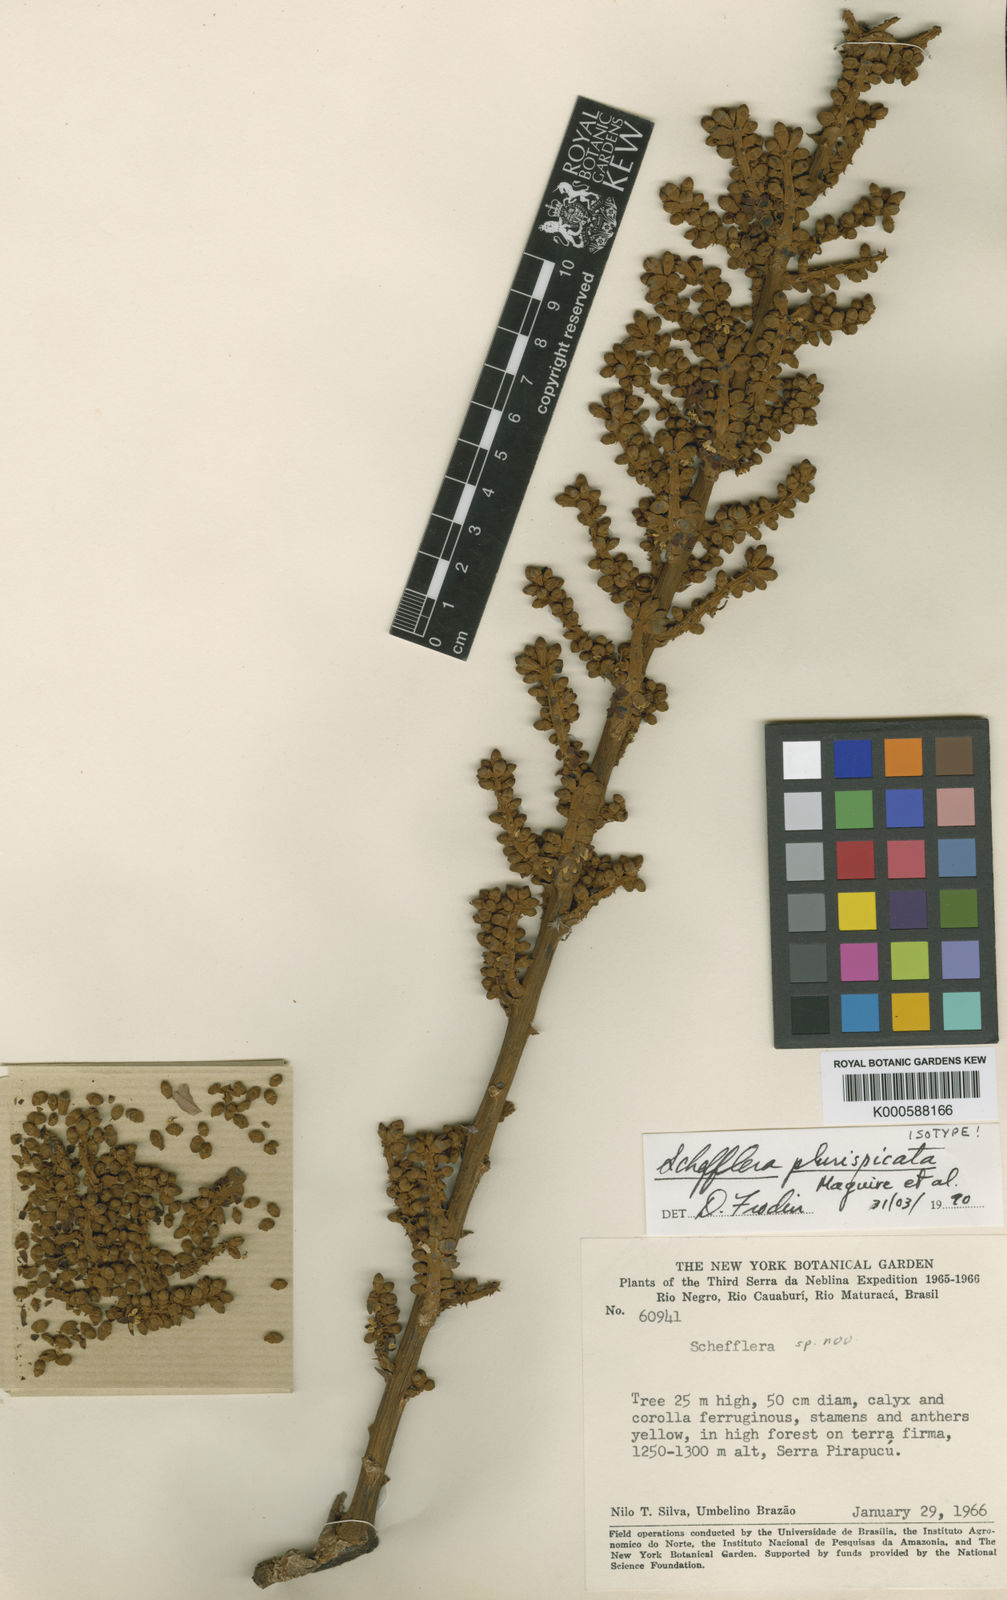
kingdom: Plantae
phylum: Tracheophyta
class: Magnoliopsida
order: Apiales
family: Araliaceae
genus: Didymopanax
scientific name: Didymopanax plurispicatus
